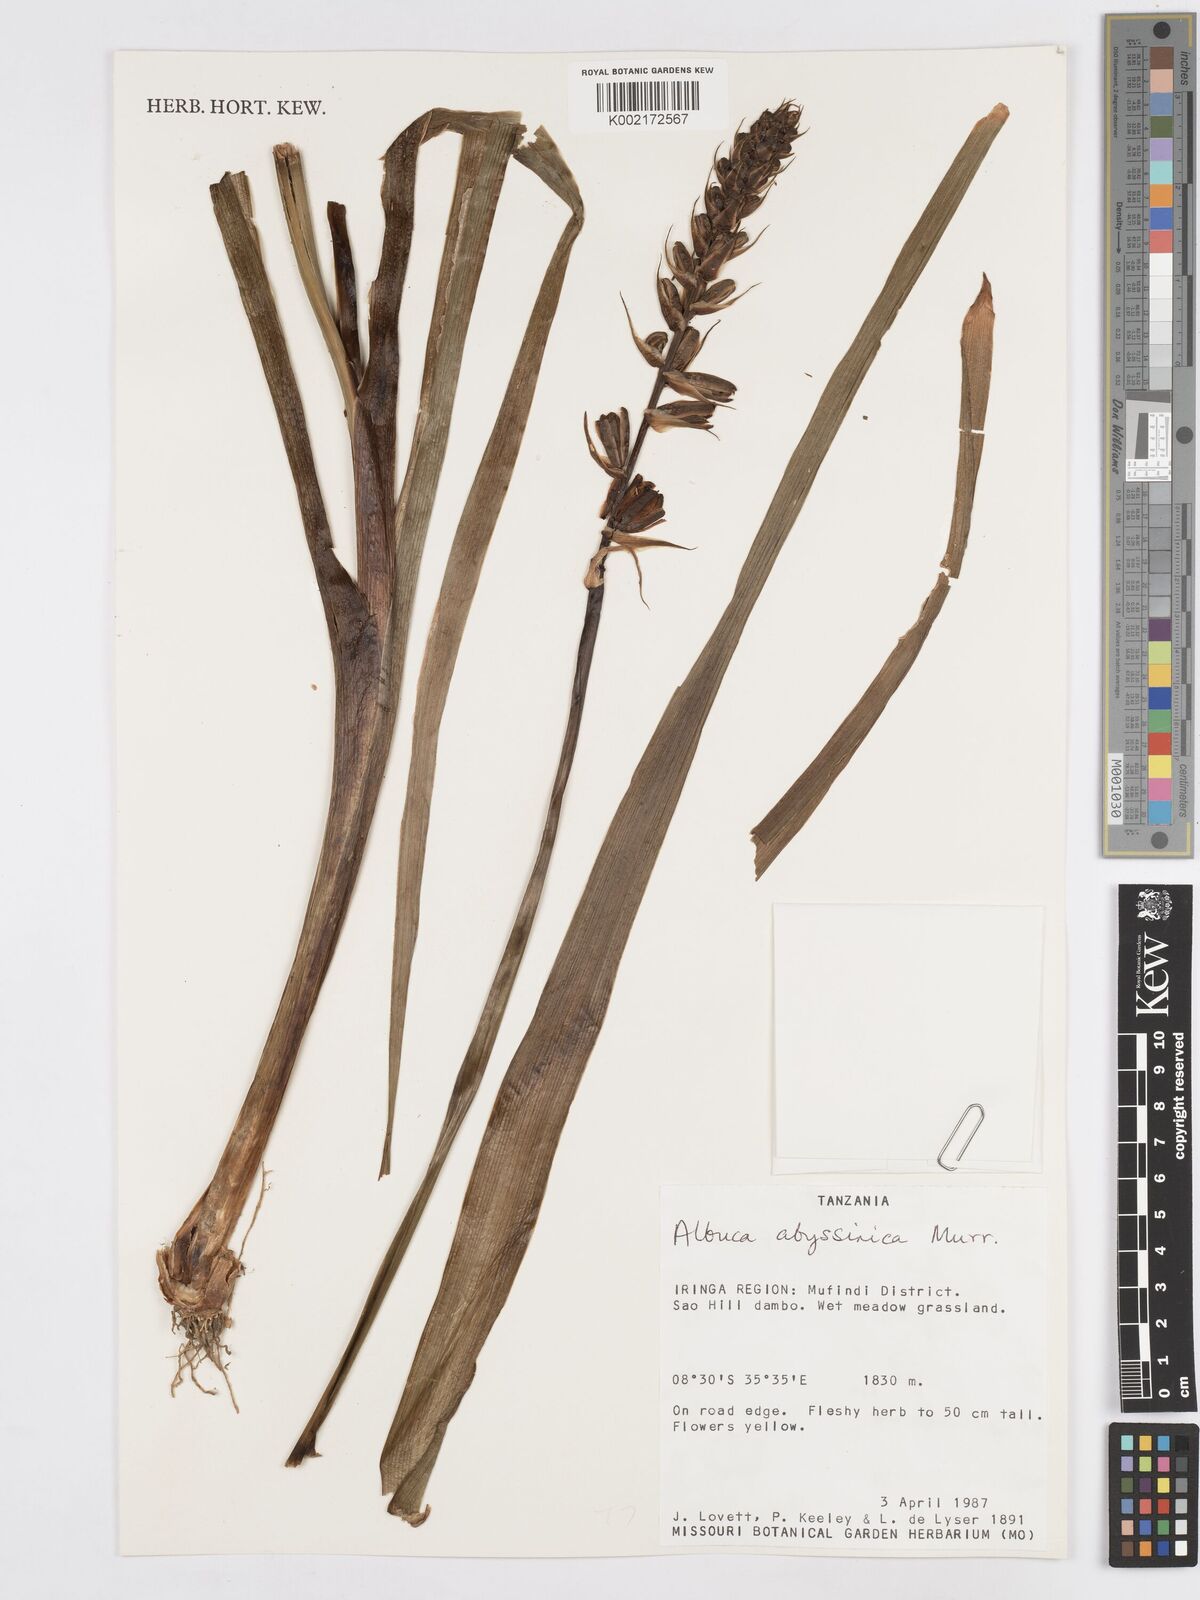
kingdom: Plantae
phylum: Tracheophyta
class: Liliopsida
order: Asparagales
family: Asparagaceae
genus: Albuca
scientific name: Albuca abyssinica
